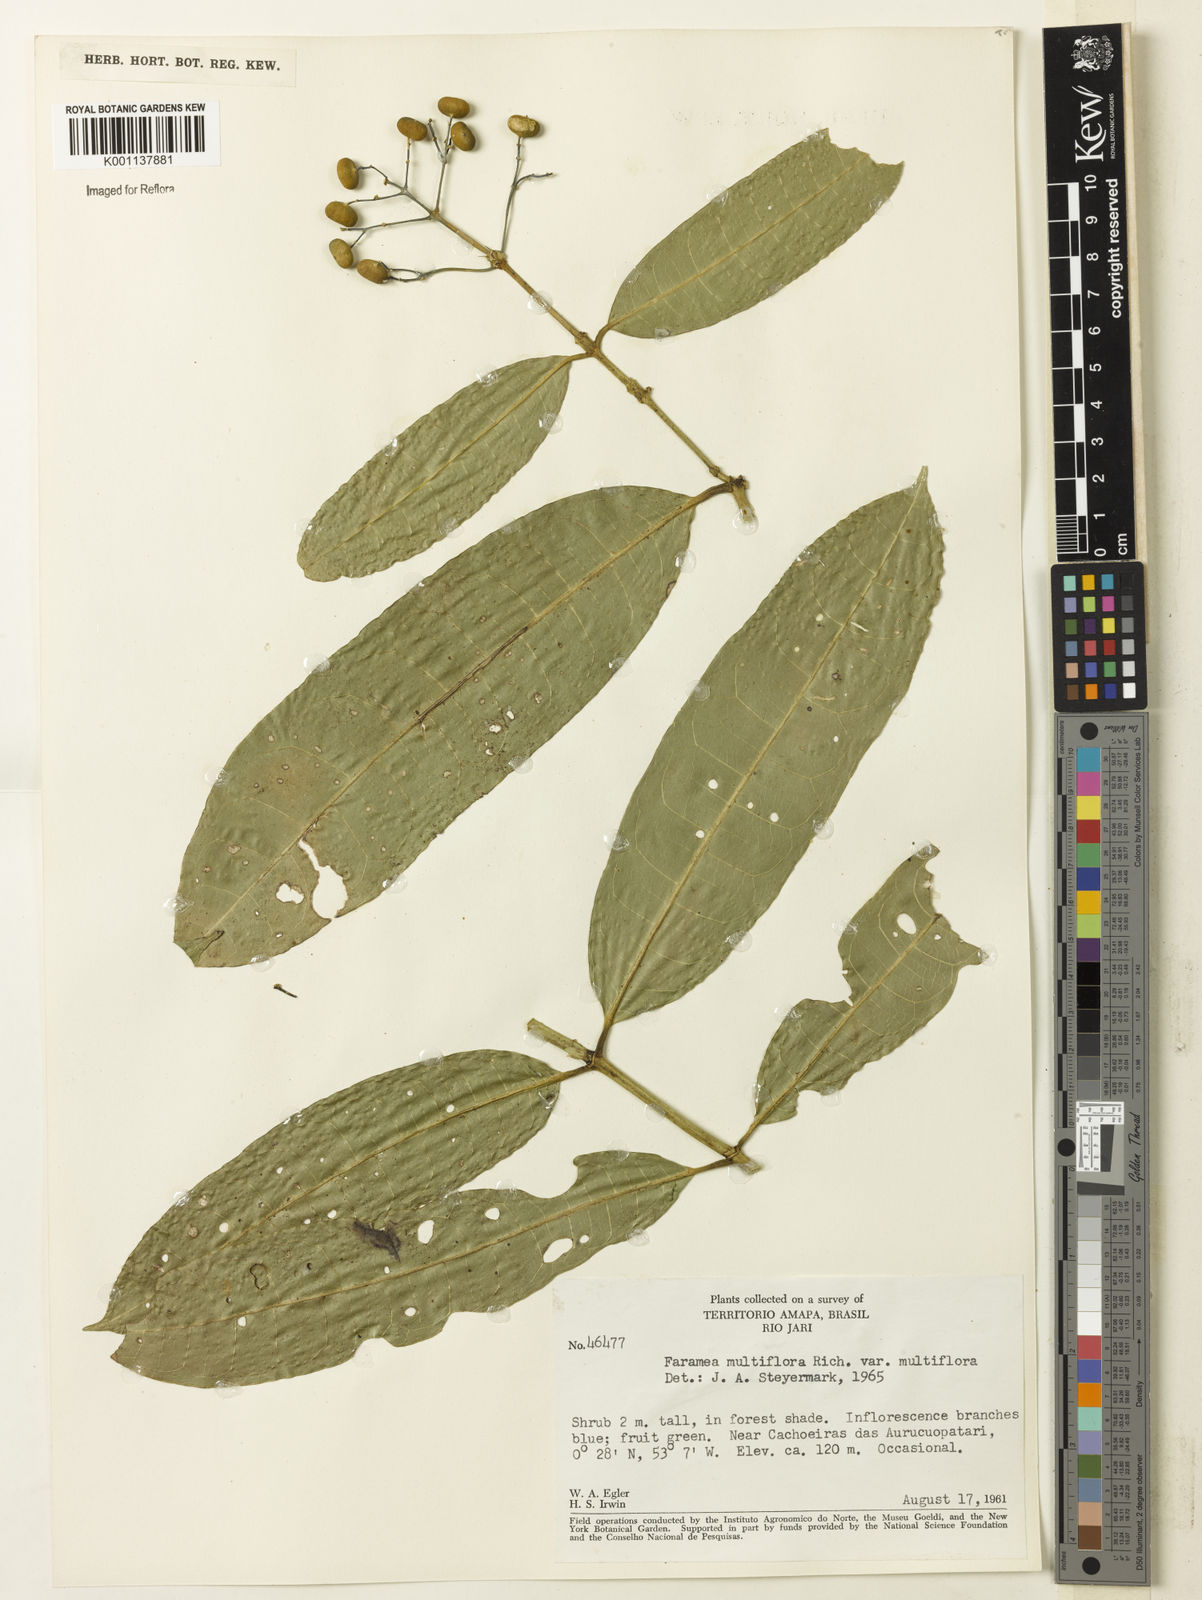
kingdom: Plantae
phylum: Tracheophyta
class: Magnoliopsida
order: Gentianales
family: Rubiaceae
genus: Faramea
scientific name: Faramea multiflora
